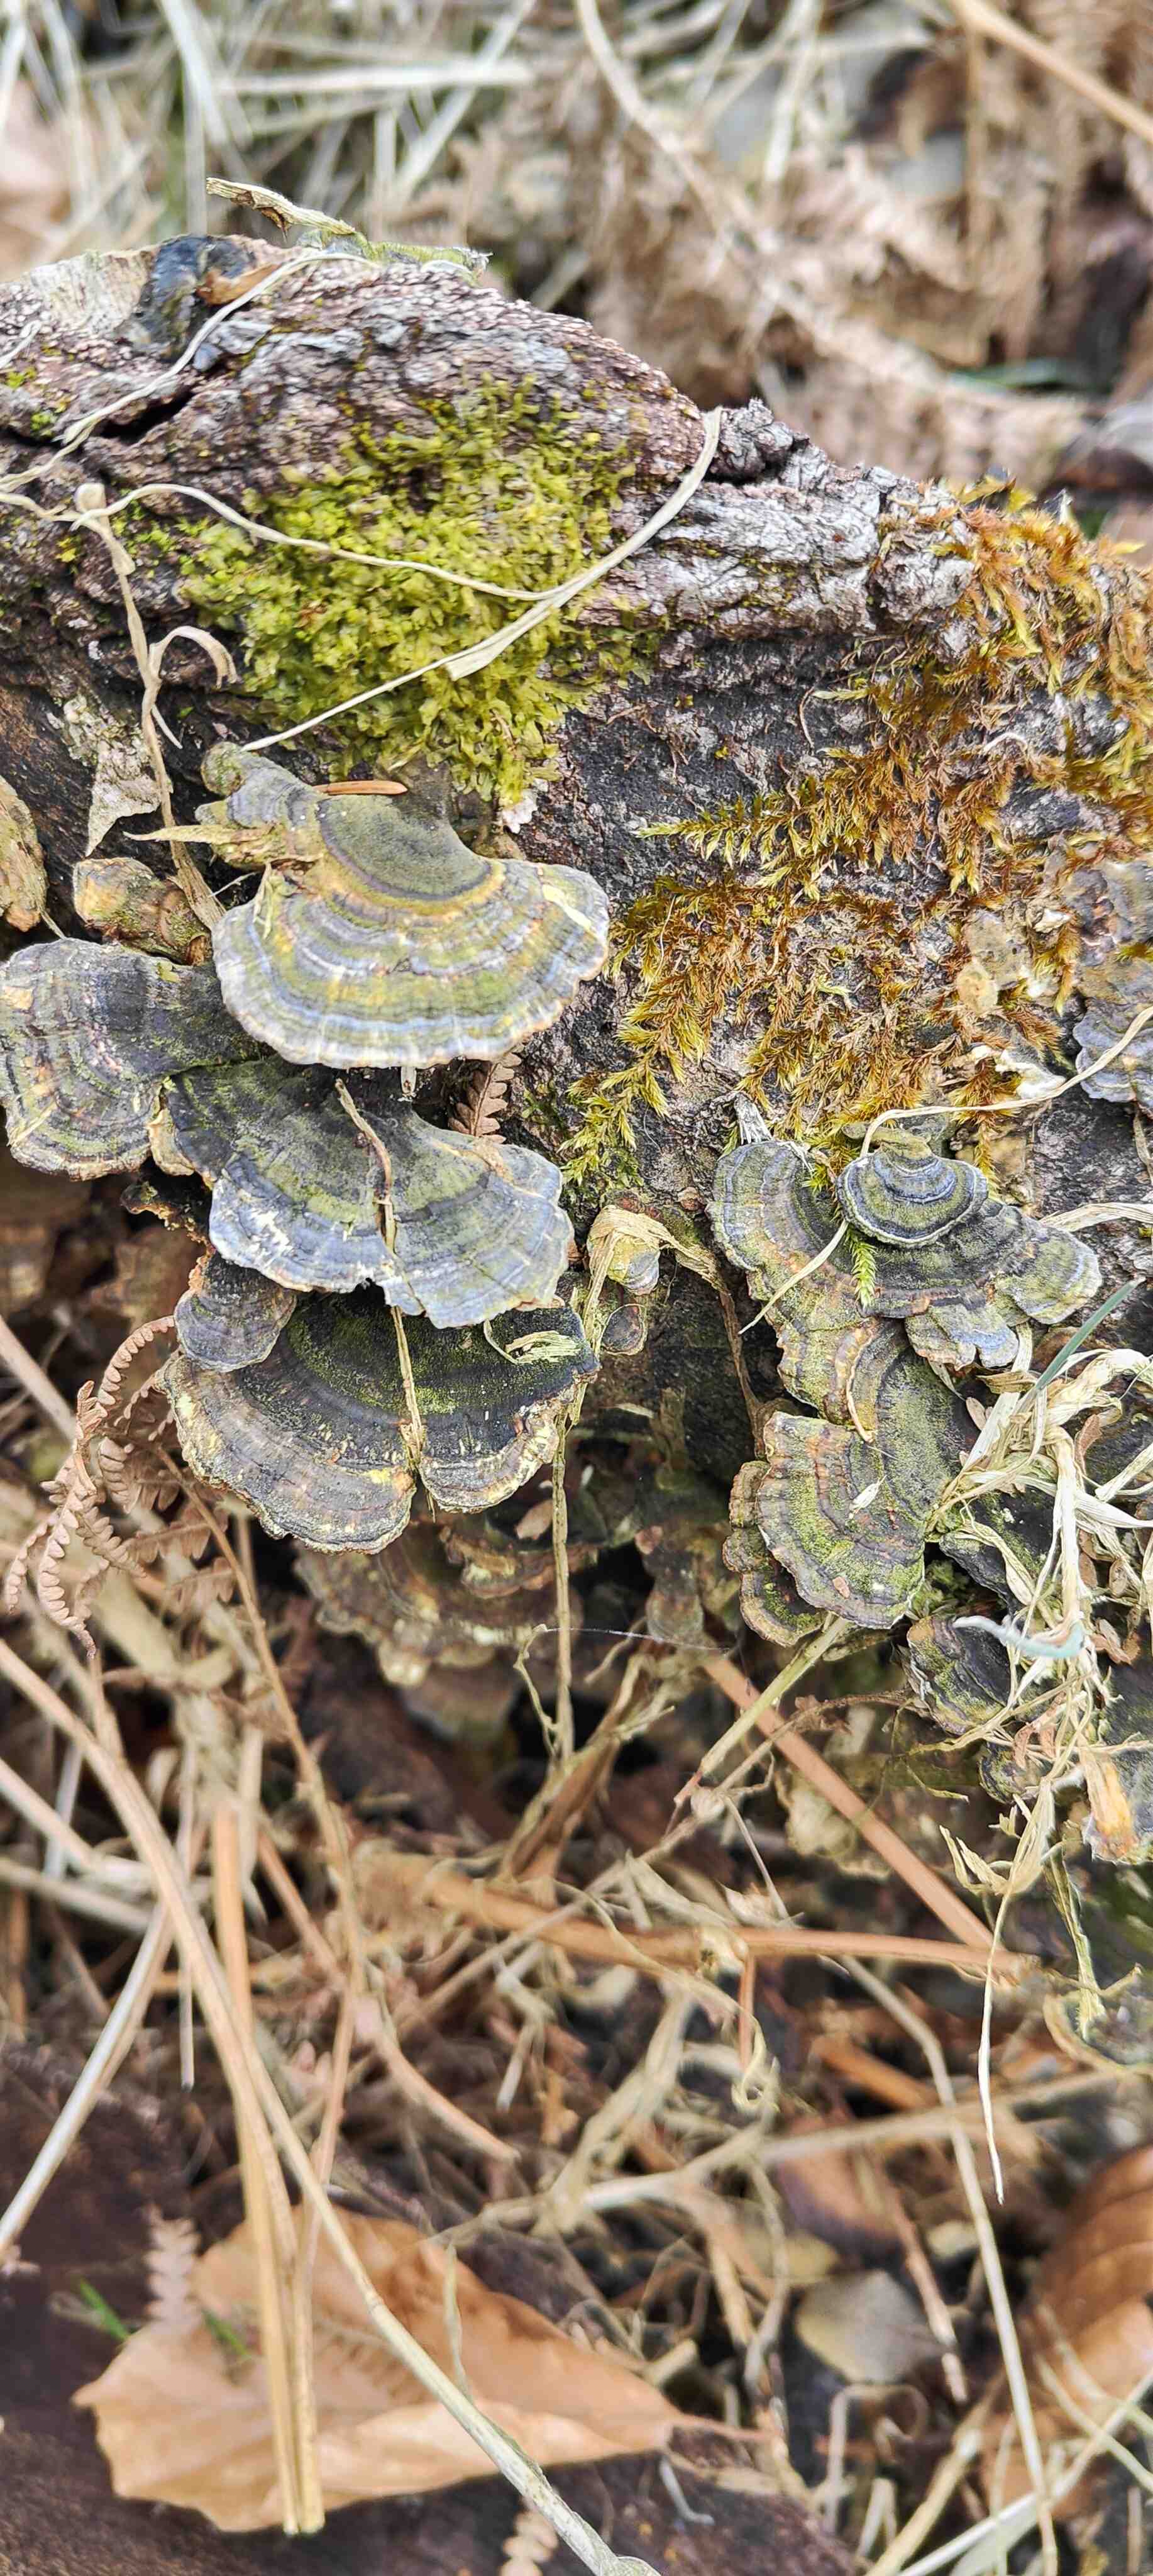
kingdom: Fungi
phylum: Basidiomycota
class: Agaricomycetes
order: Polyporales
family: Polyporaceae
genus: Trametes
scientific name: Trametes versicolor
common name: broget læderporesvamp
